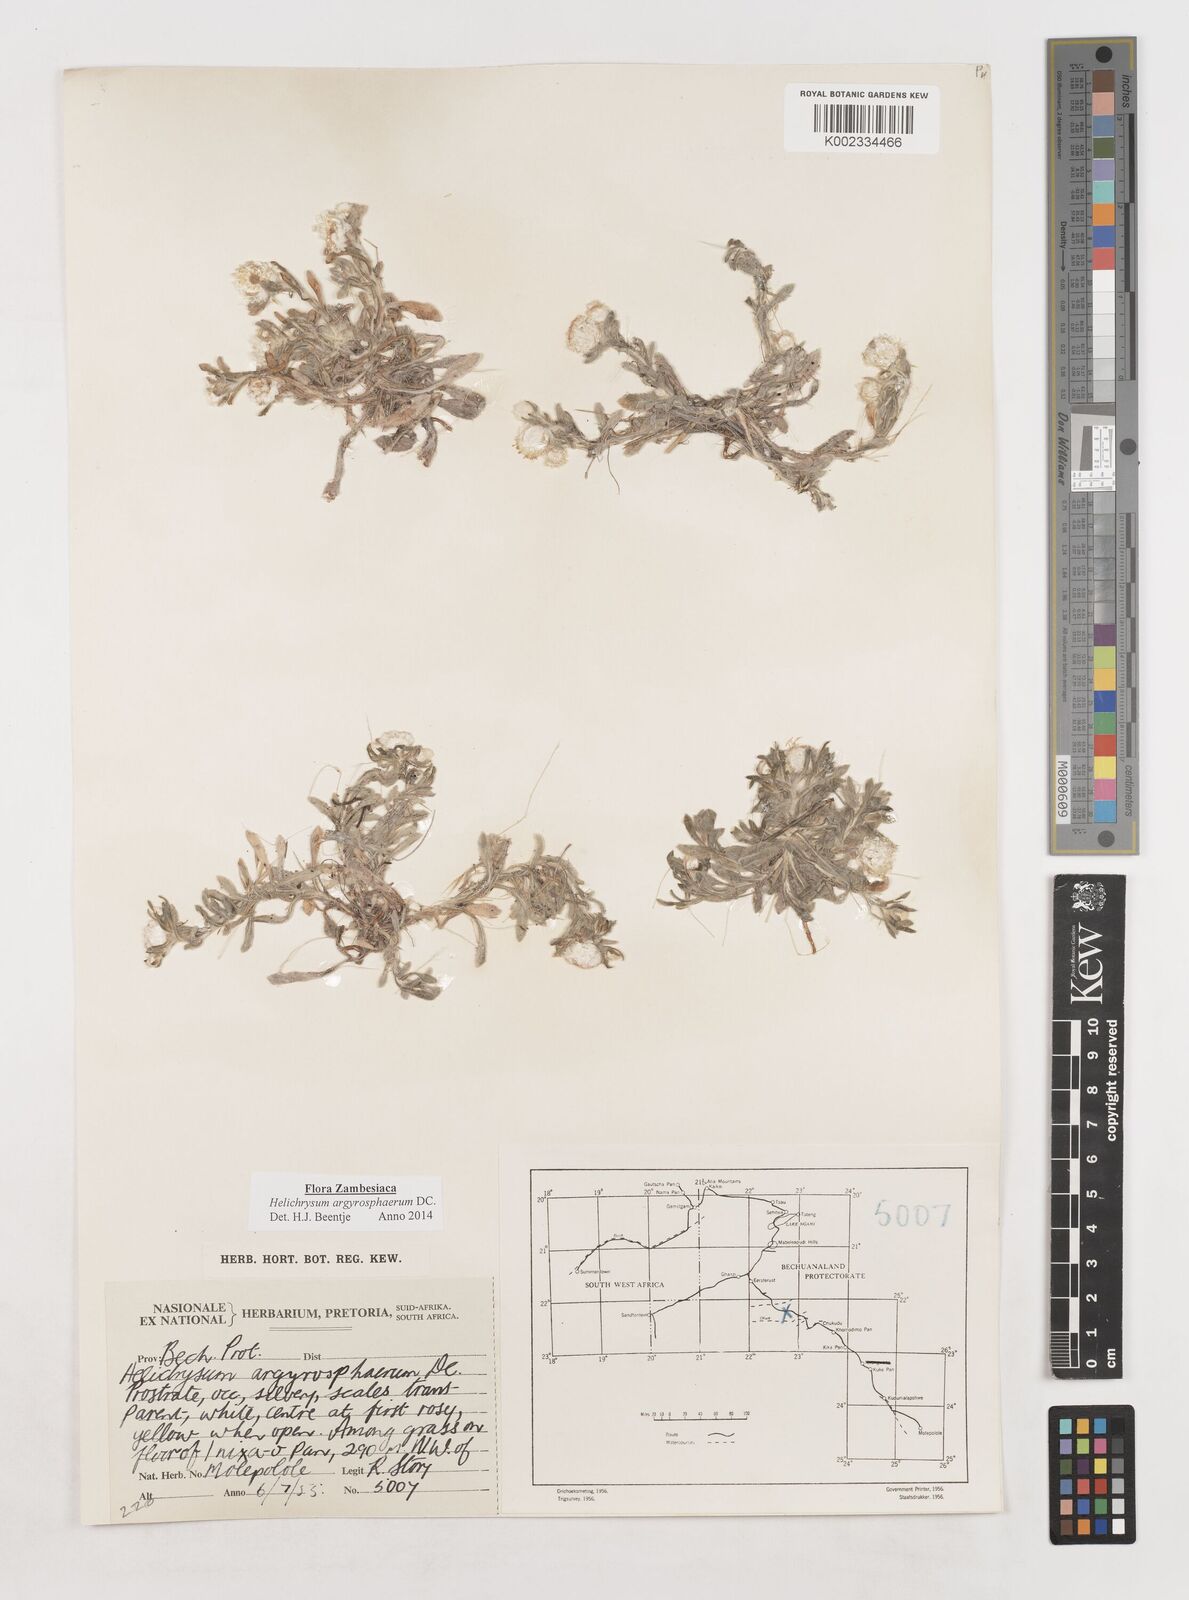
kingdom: Plantae
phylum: Tracheophyta
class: Magnoliopsida
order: Asterales
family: Asteraceae
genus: Helichrysum
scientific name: Helichrysum argyrosphaerum
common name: Wild everlasting
